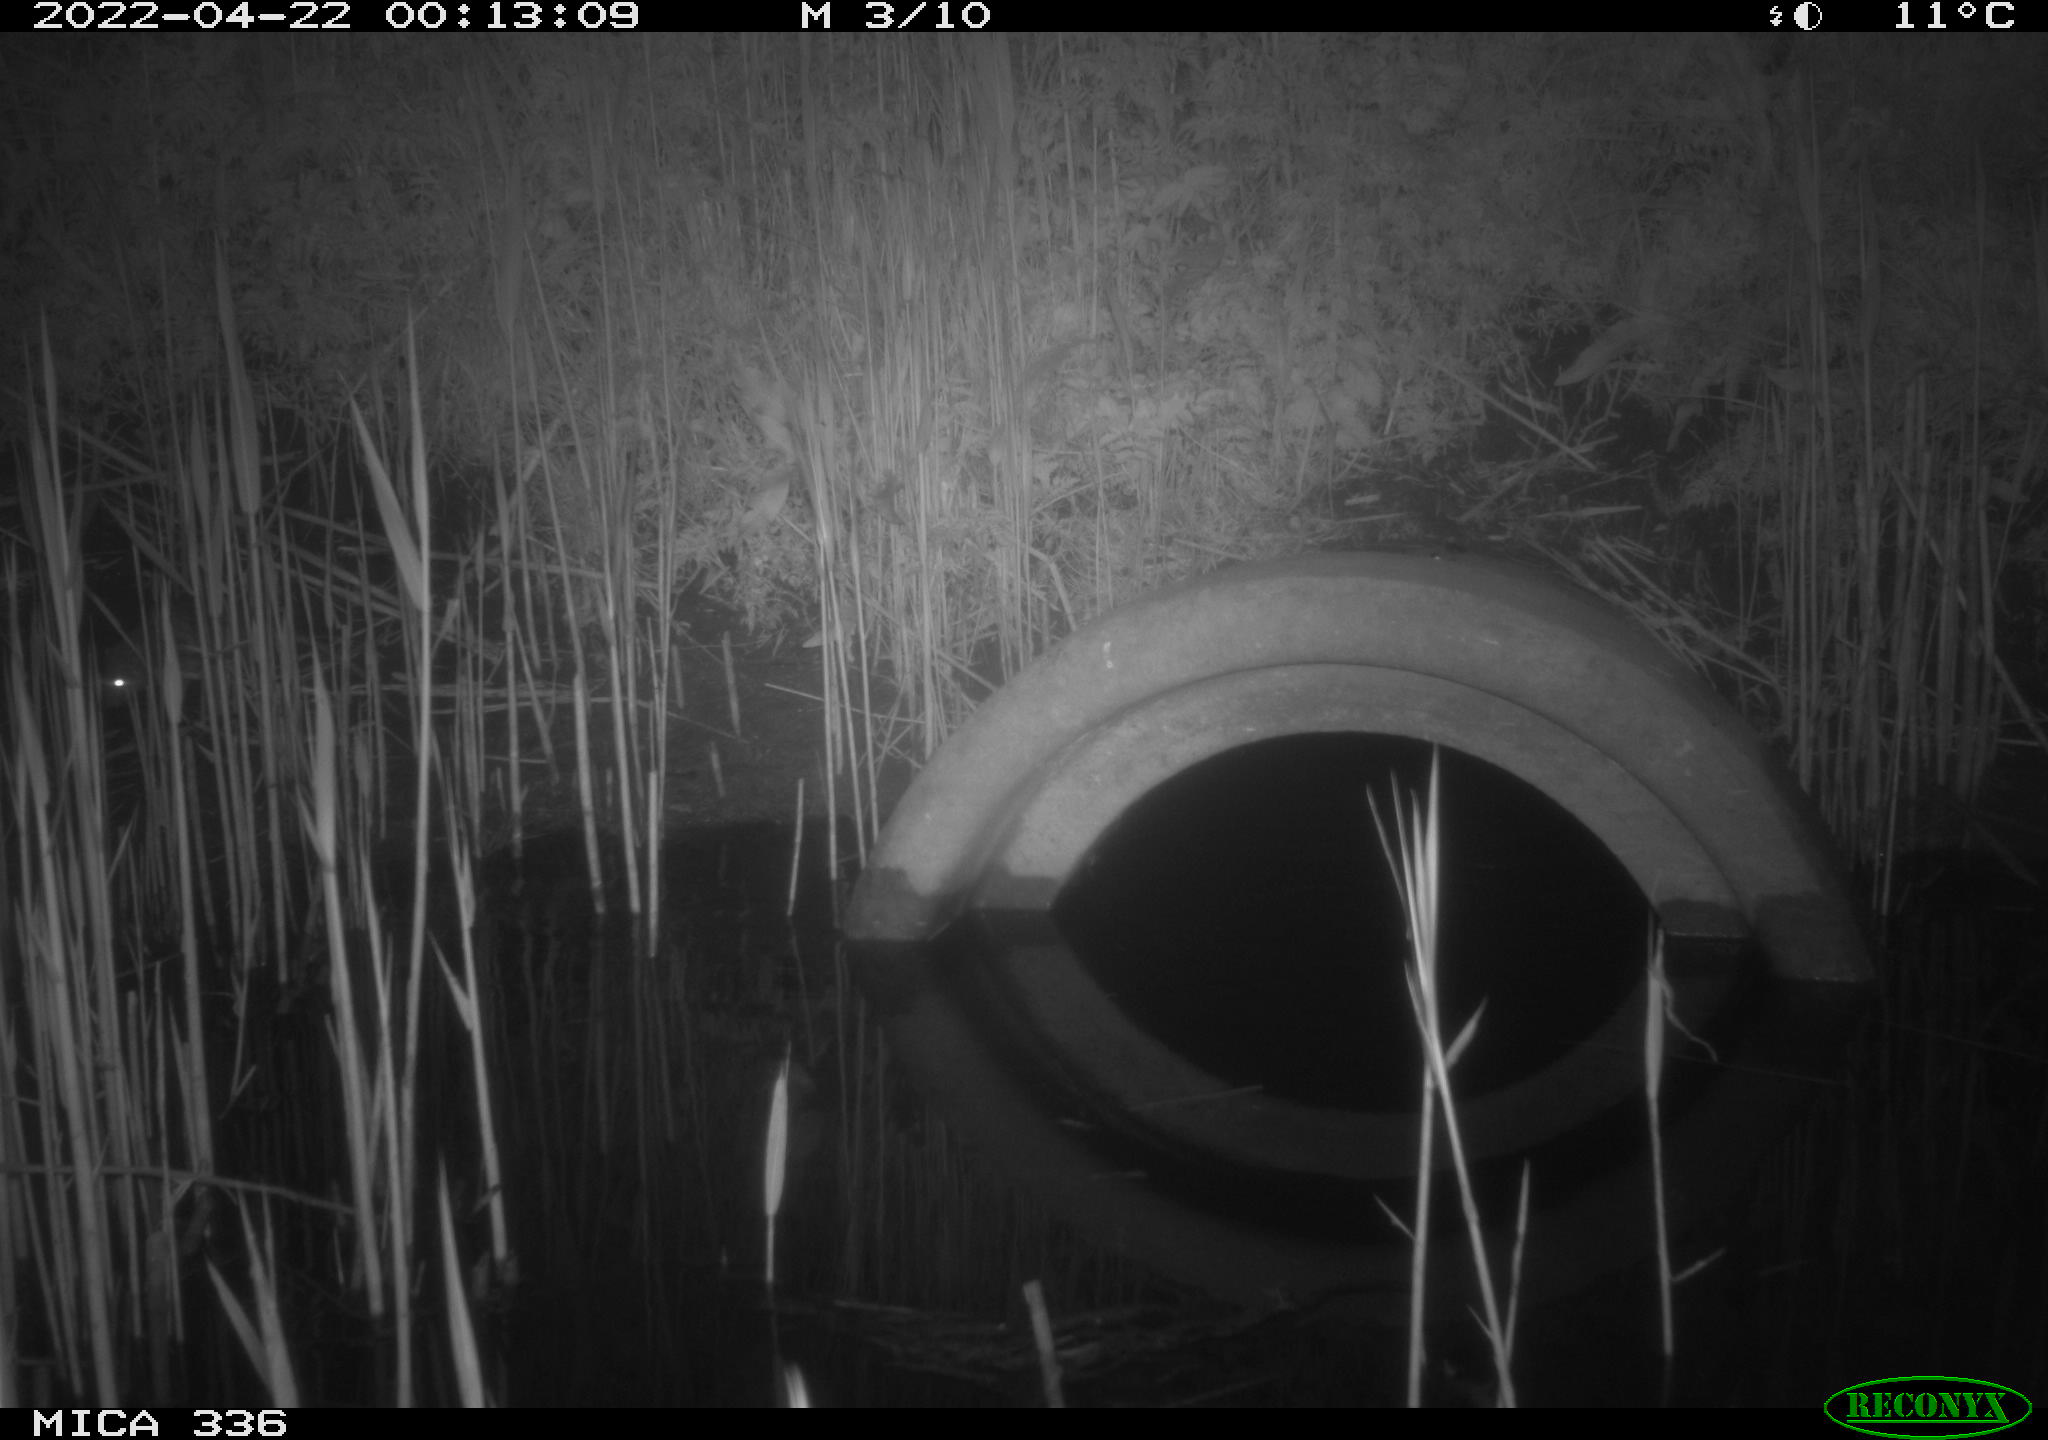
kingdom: Animalia
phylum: Chordata
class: Mammalia
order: Rodentia
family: Muridae
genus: Rattus
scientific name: Rattus norvegicus
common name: Brown rat
